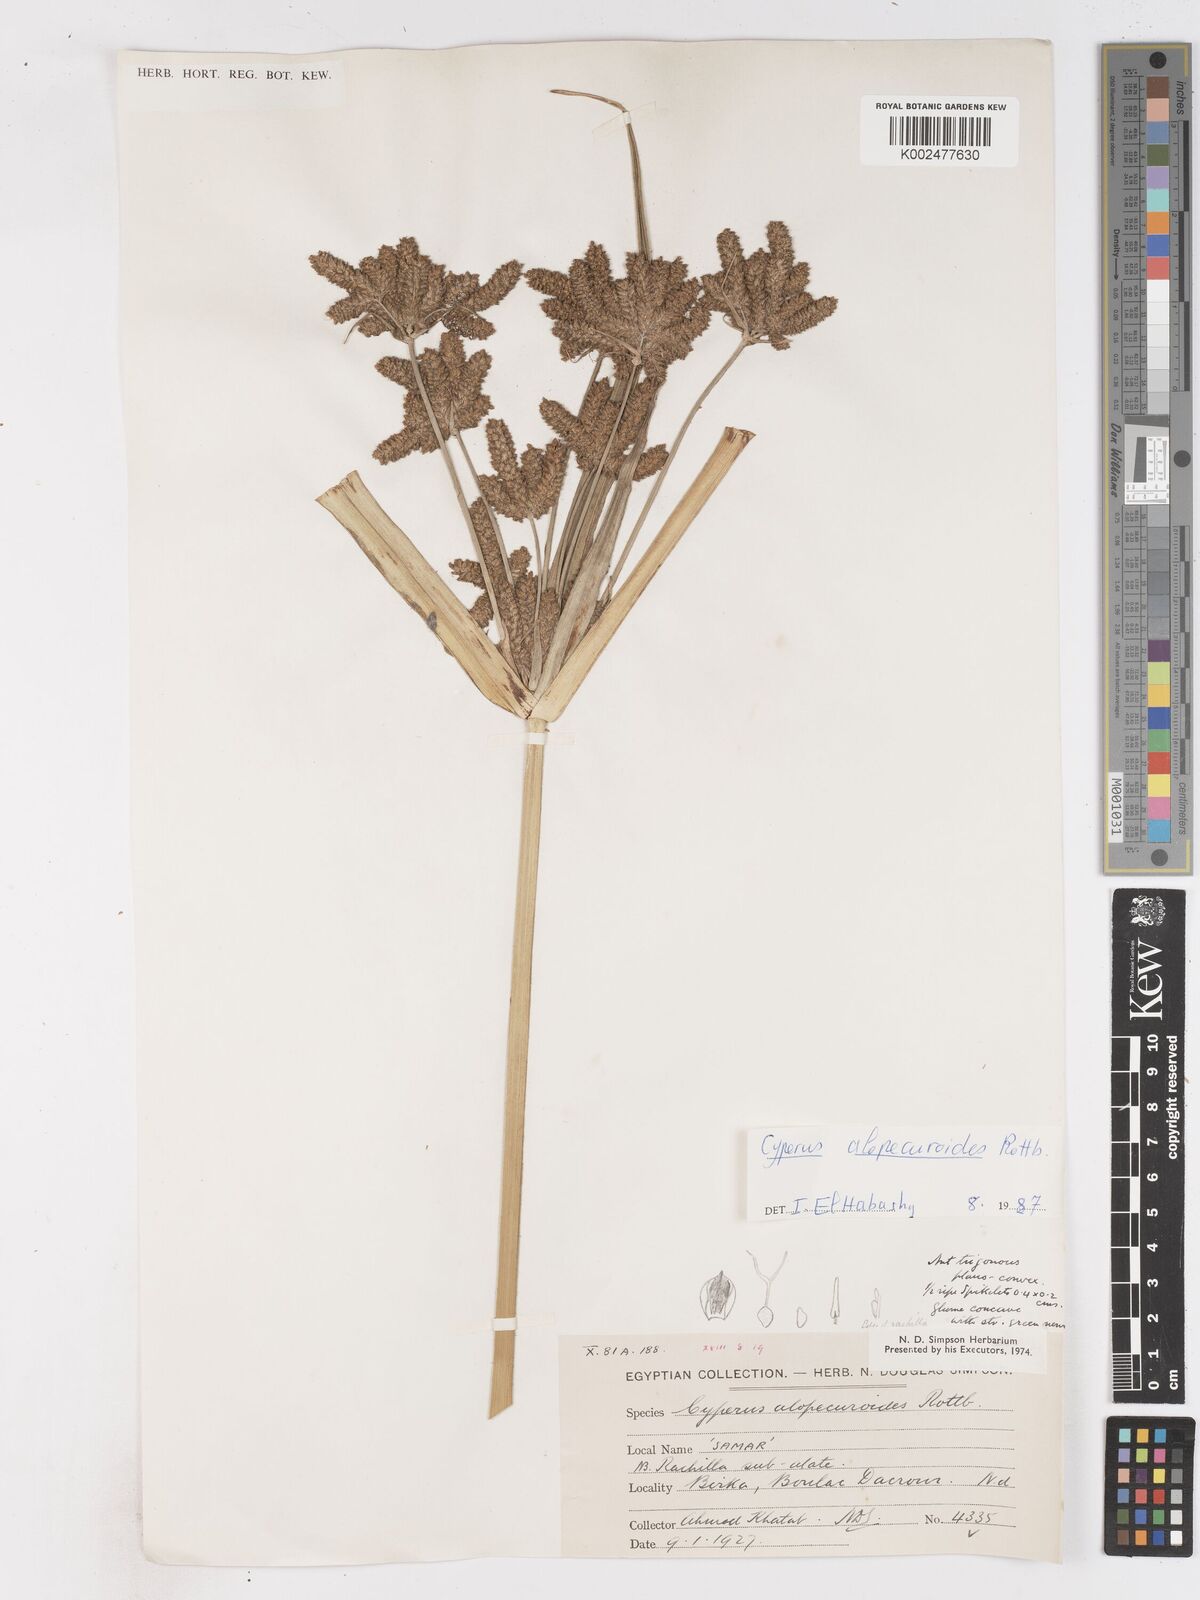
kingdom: Plantae
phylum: Tracheophyta
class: Liliopsida
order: Poales
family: Cyperaceae
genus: Cyperus
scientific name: Cyperus alopecuroides
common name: Foxtail flatsedge
